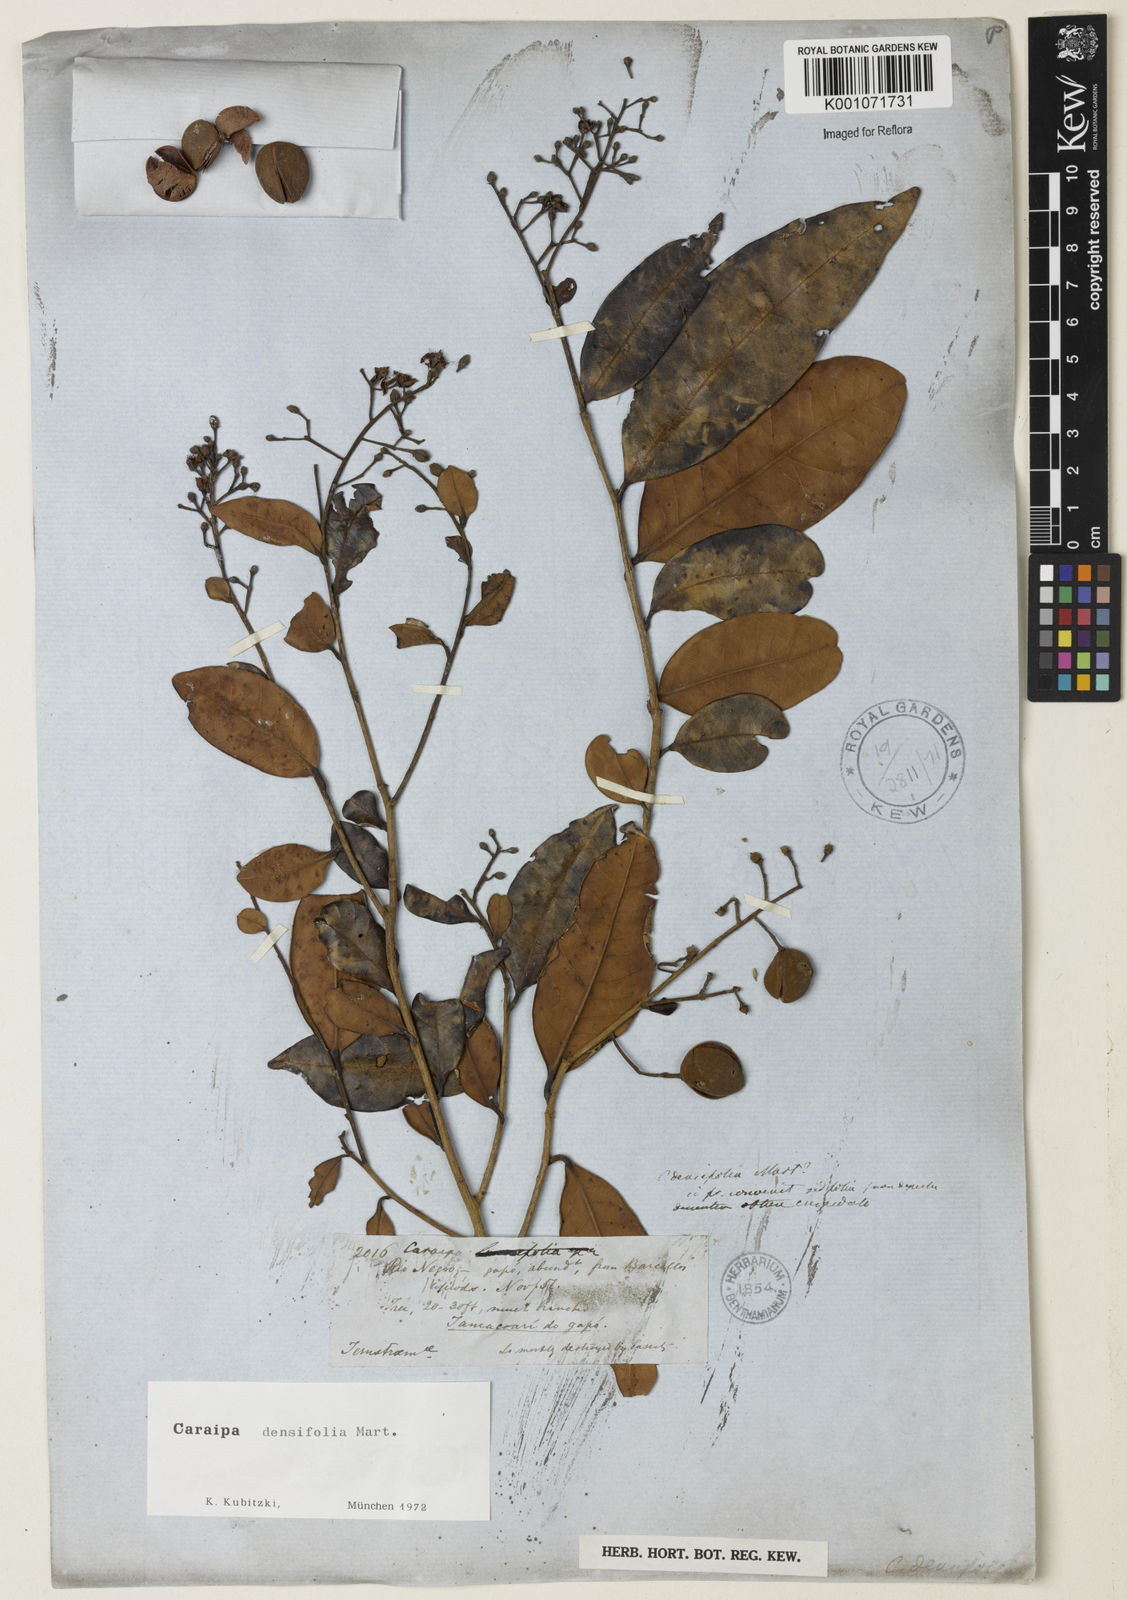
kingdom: Plantae
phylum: Tracheophyta
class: Magnoliopsida
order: Malpighiales
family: Calophyllaceae
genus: Caraipa
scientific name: Caraipa densifolia
